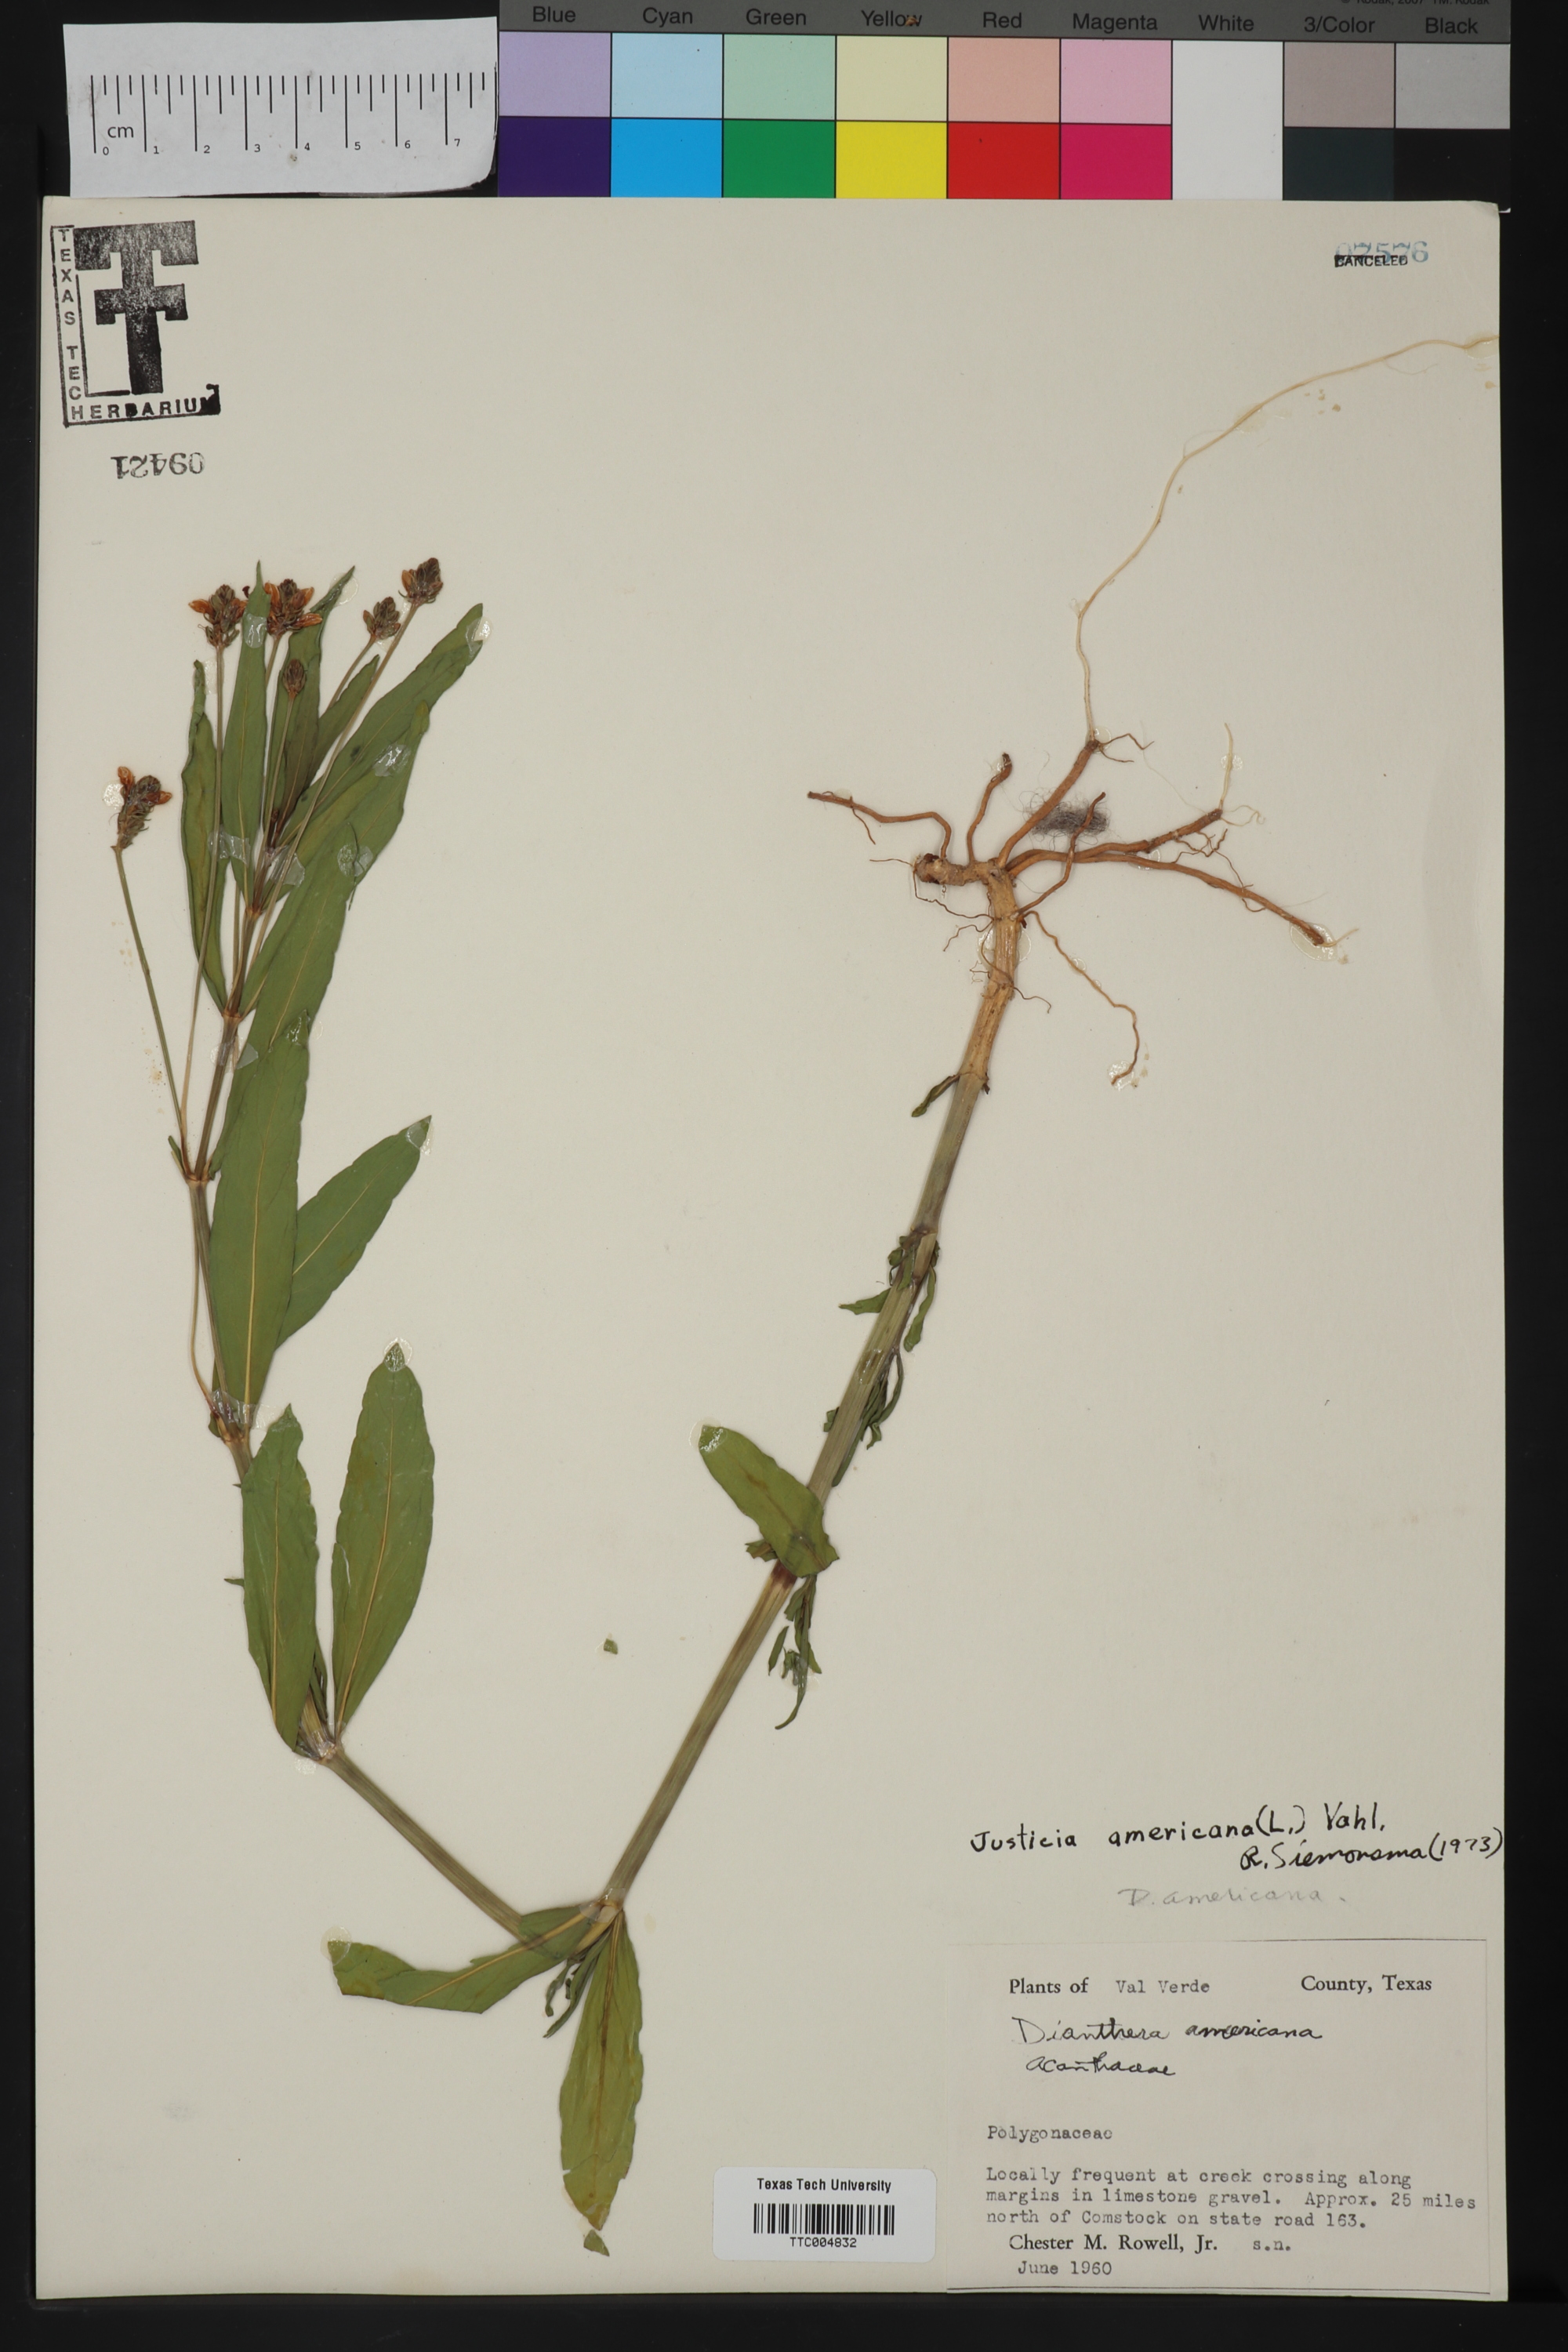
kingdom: Plantae
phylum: Tracheophyta
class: Magnoliopsida
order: Lamiales
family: Acanthaceae
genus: Dianthera
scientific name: Dianthera americana
